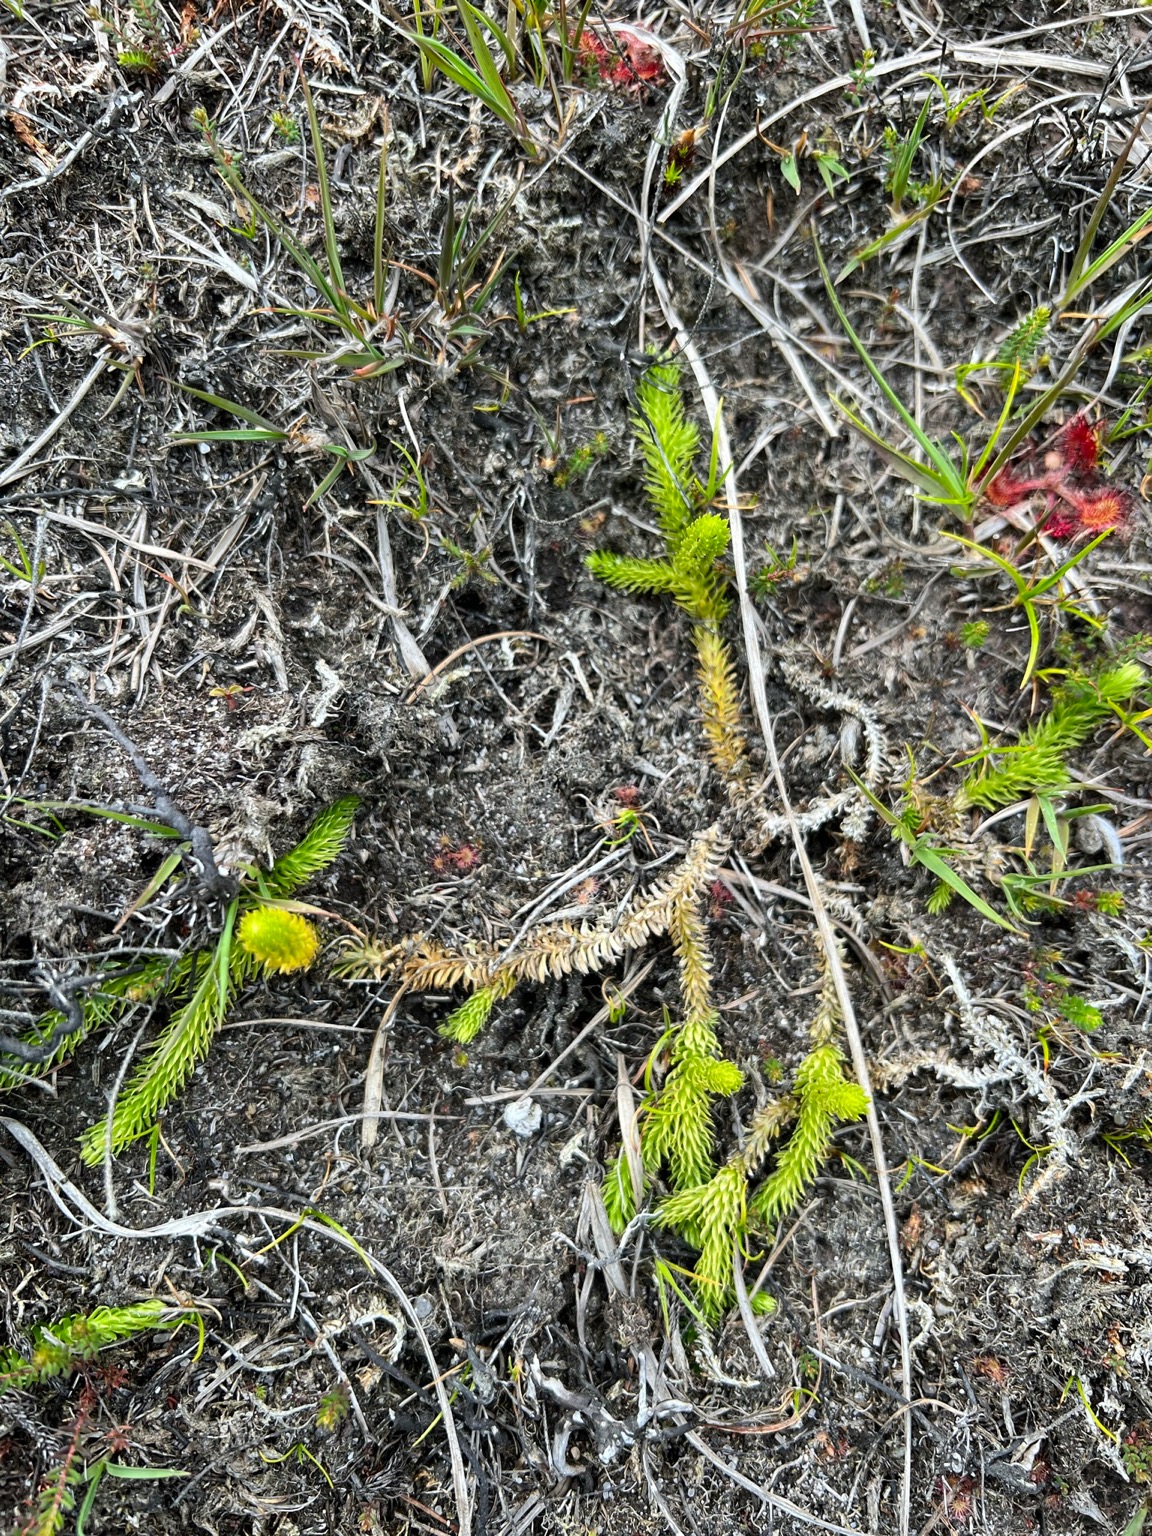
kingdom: Plantae
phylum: Tracheophyta
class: Lycopodiopsida
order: Lycopodiales
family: Lycopodiaceae
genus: Lycopodiella
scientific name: Lycopodiella inundata
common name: Liden ulvefod
